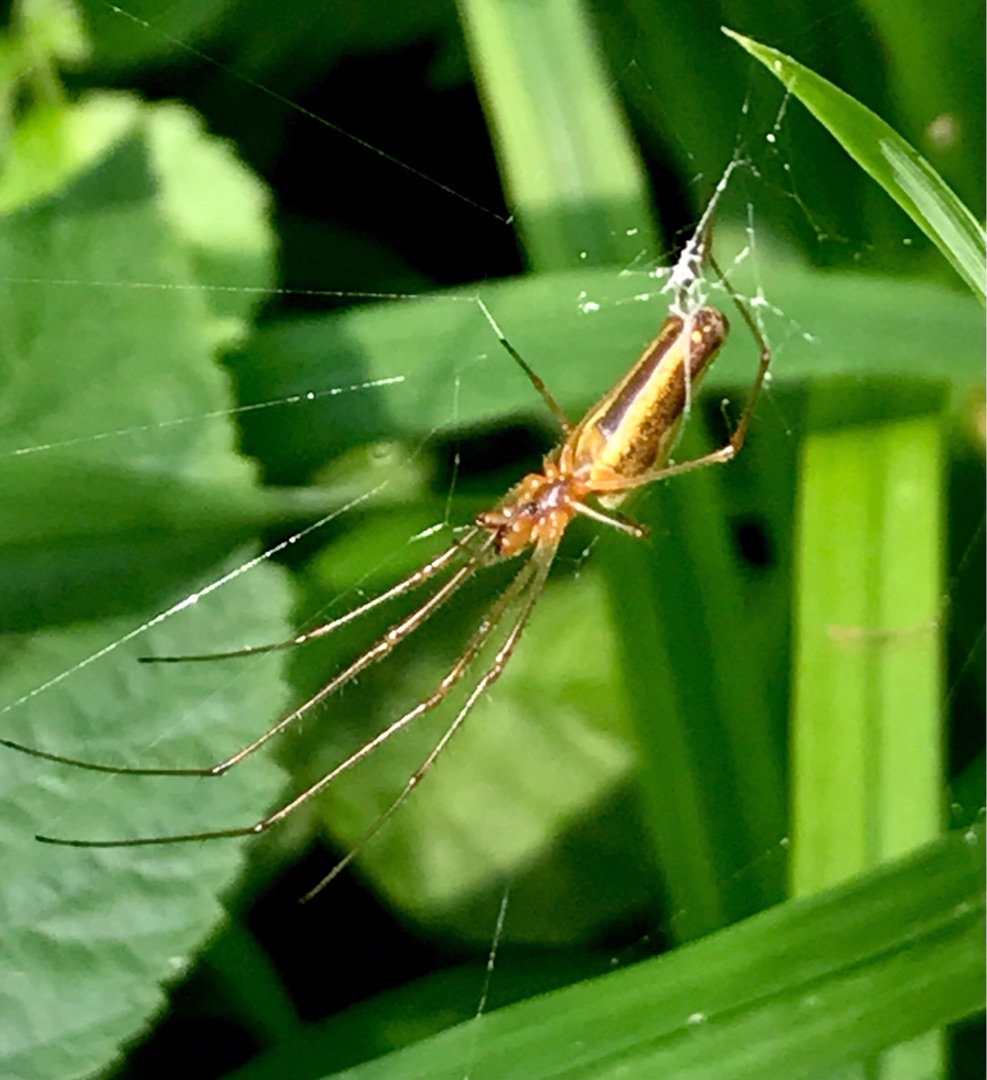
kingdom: Animalia
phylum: Arthropoda
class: Arachnida
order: Araneae
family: Tetragnathidae
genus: Tetragnatha
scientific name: Tetragnatha
